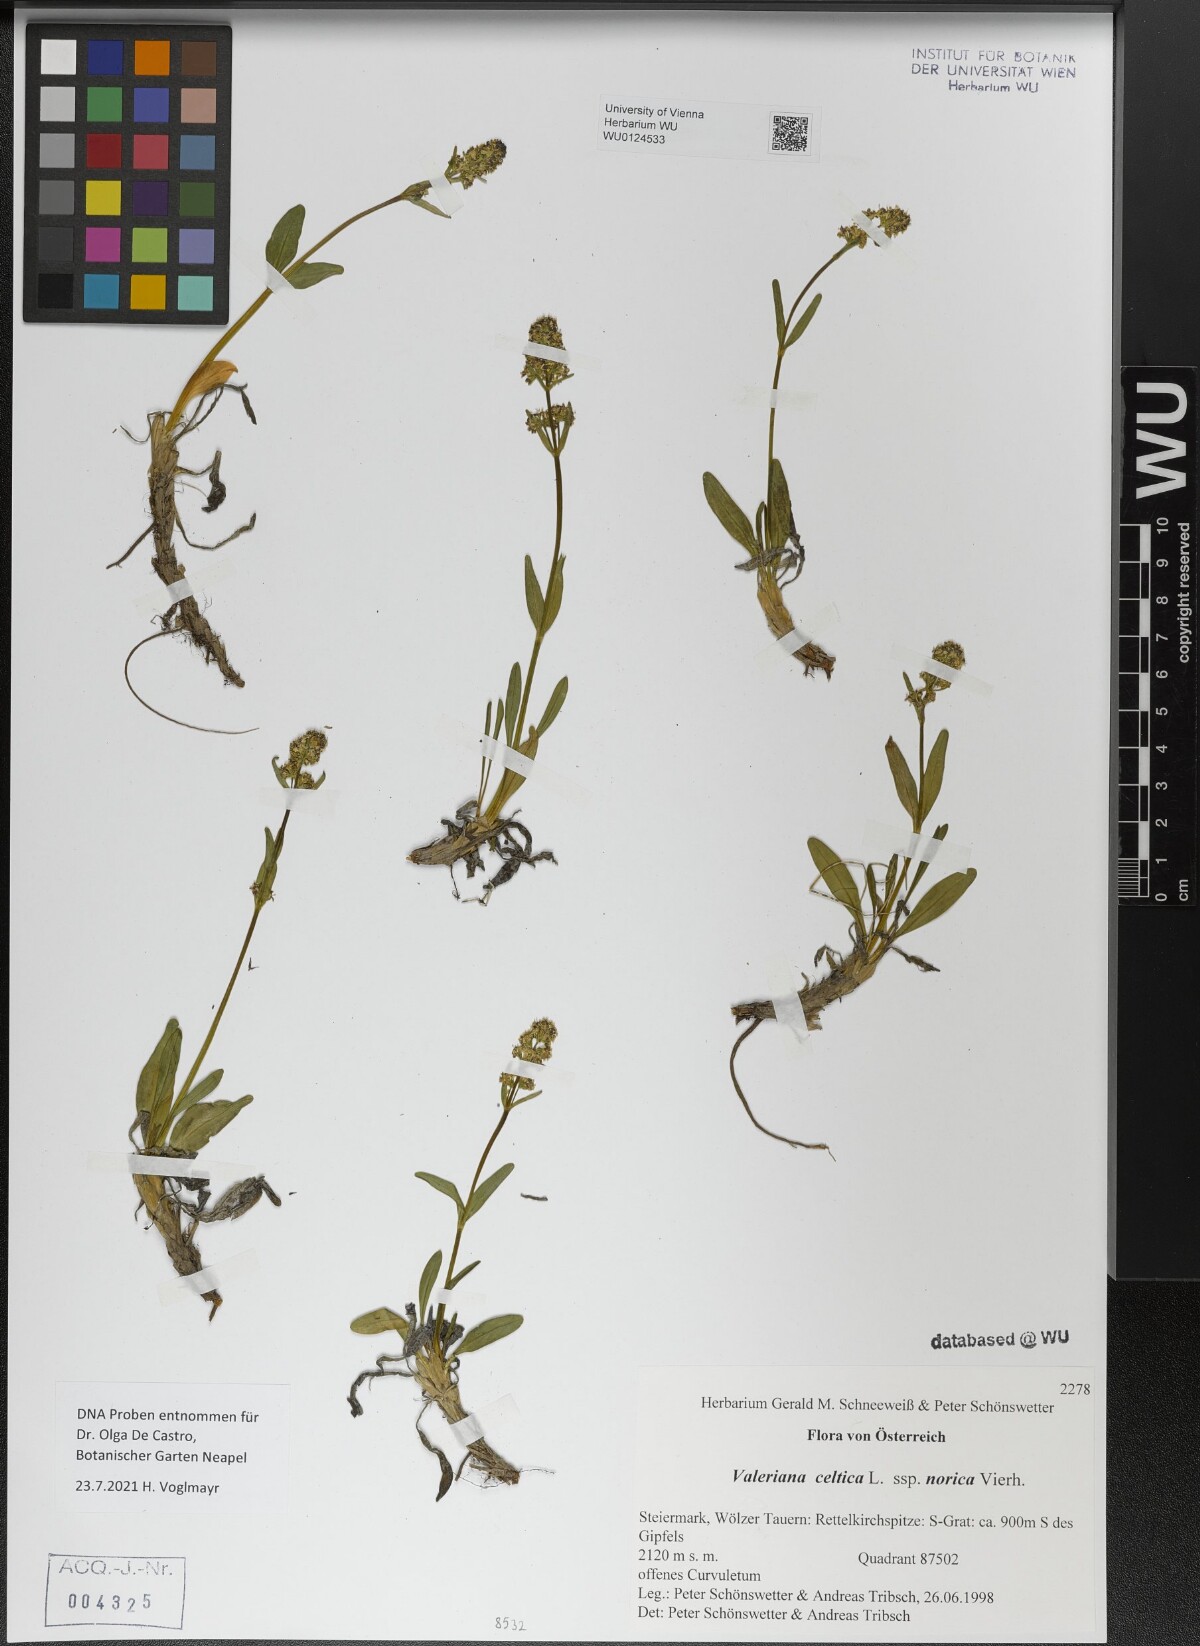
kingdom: Plantae
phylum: Tracheophyta
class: Magnoliopsida
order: Dipsacales
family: Caprifoliaceae
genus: Valeriana
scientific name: Valeriana celtica
